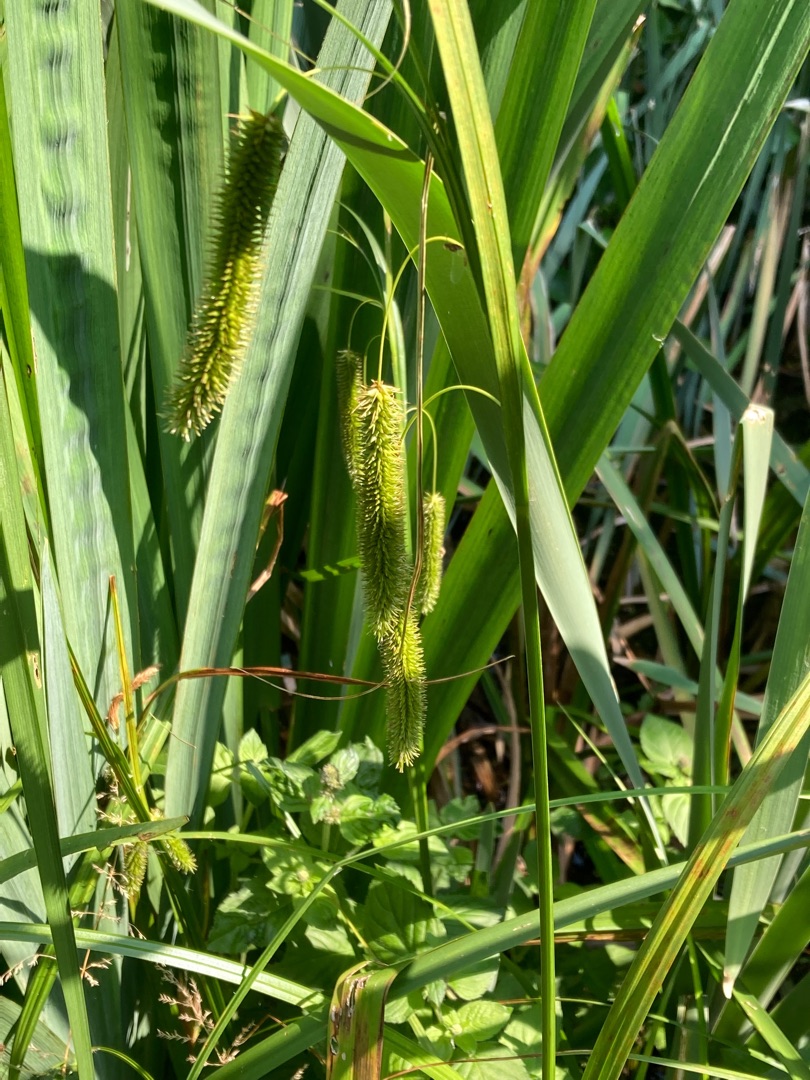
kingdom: Plantae
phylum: Tracheophyta
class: Liliopsida
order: Poales
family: Cyperaceae
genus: Carex
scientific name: Carex pseudocyperus
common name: Knippe-star
